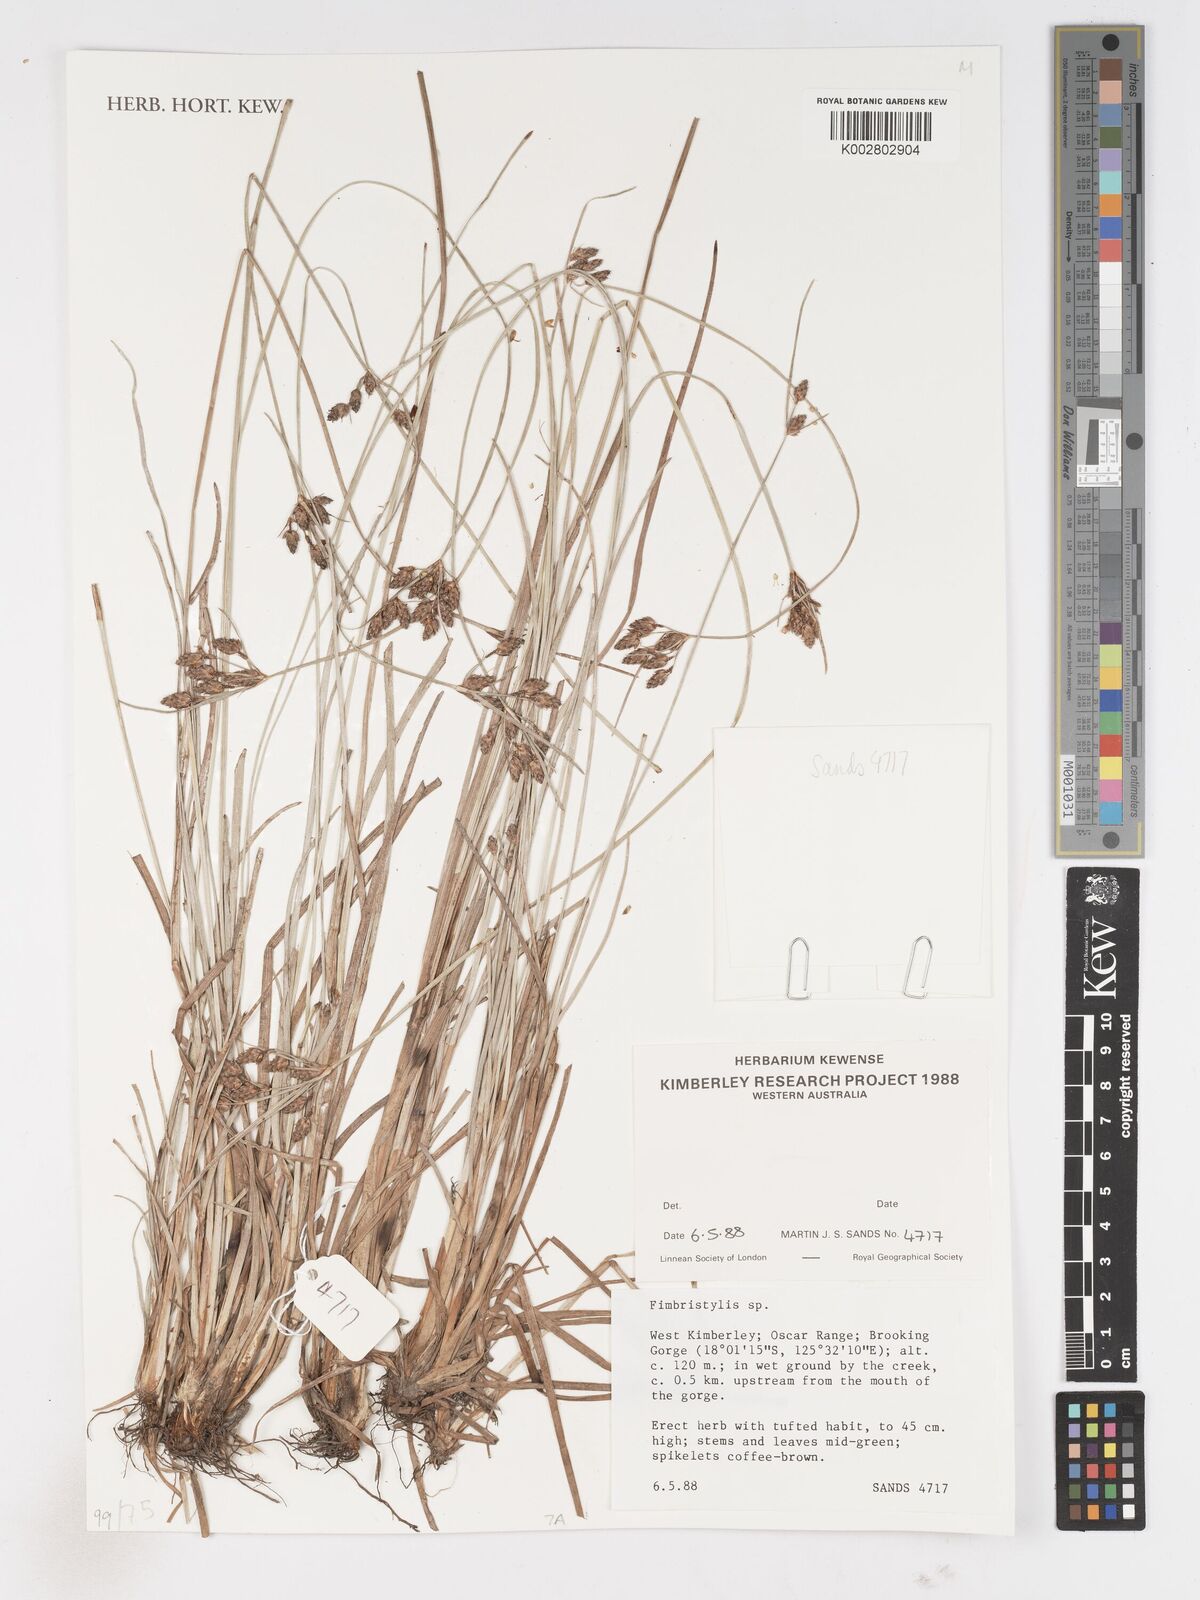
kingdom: Plantae
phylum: Tracheophyta
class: Liliopsida
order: Poales
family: Cyperaceae
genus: Fimbristylis
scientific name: Fimbristylis
